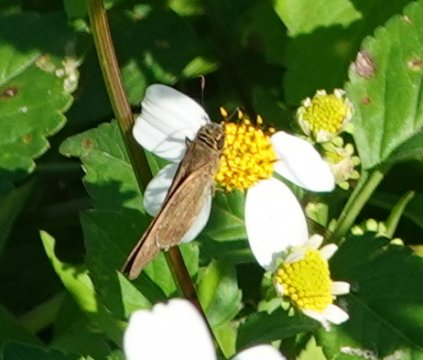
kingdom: Animalia
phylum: Arthropoda
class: Insecta
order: Lepidoptera
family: Hesperiidae
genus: Panoquina
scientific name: Panoquina ocola
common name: Ocola Skipper
